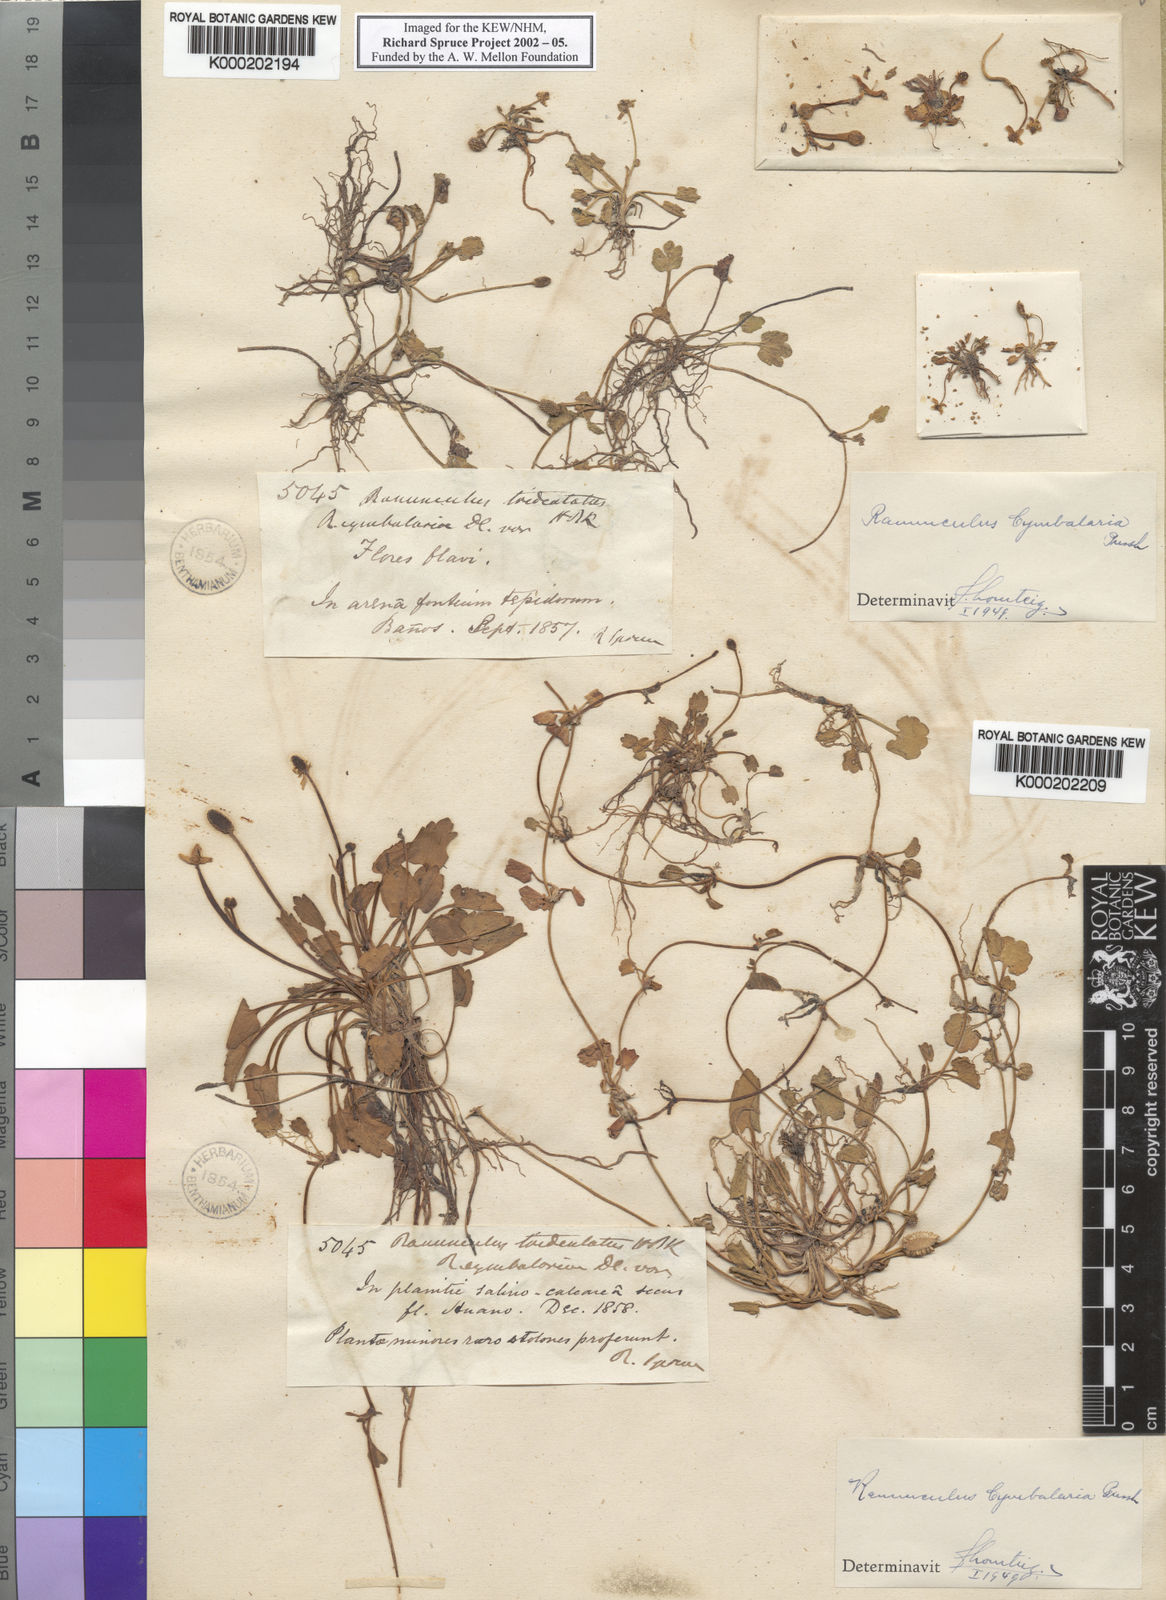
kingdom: Plantae
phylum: Tracheophyta
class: Magnoliopsida
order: Ranunculales
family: Ranunculaceae
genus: Halerpestes
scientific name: Halerpestes cymbalaria
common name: Seaside crowfoot
